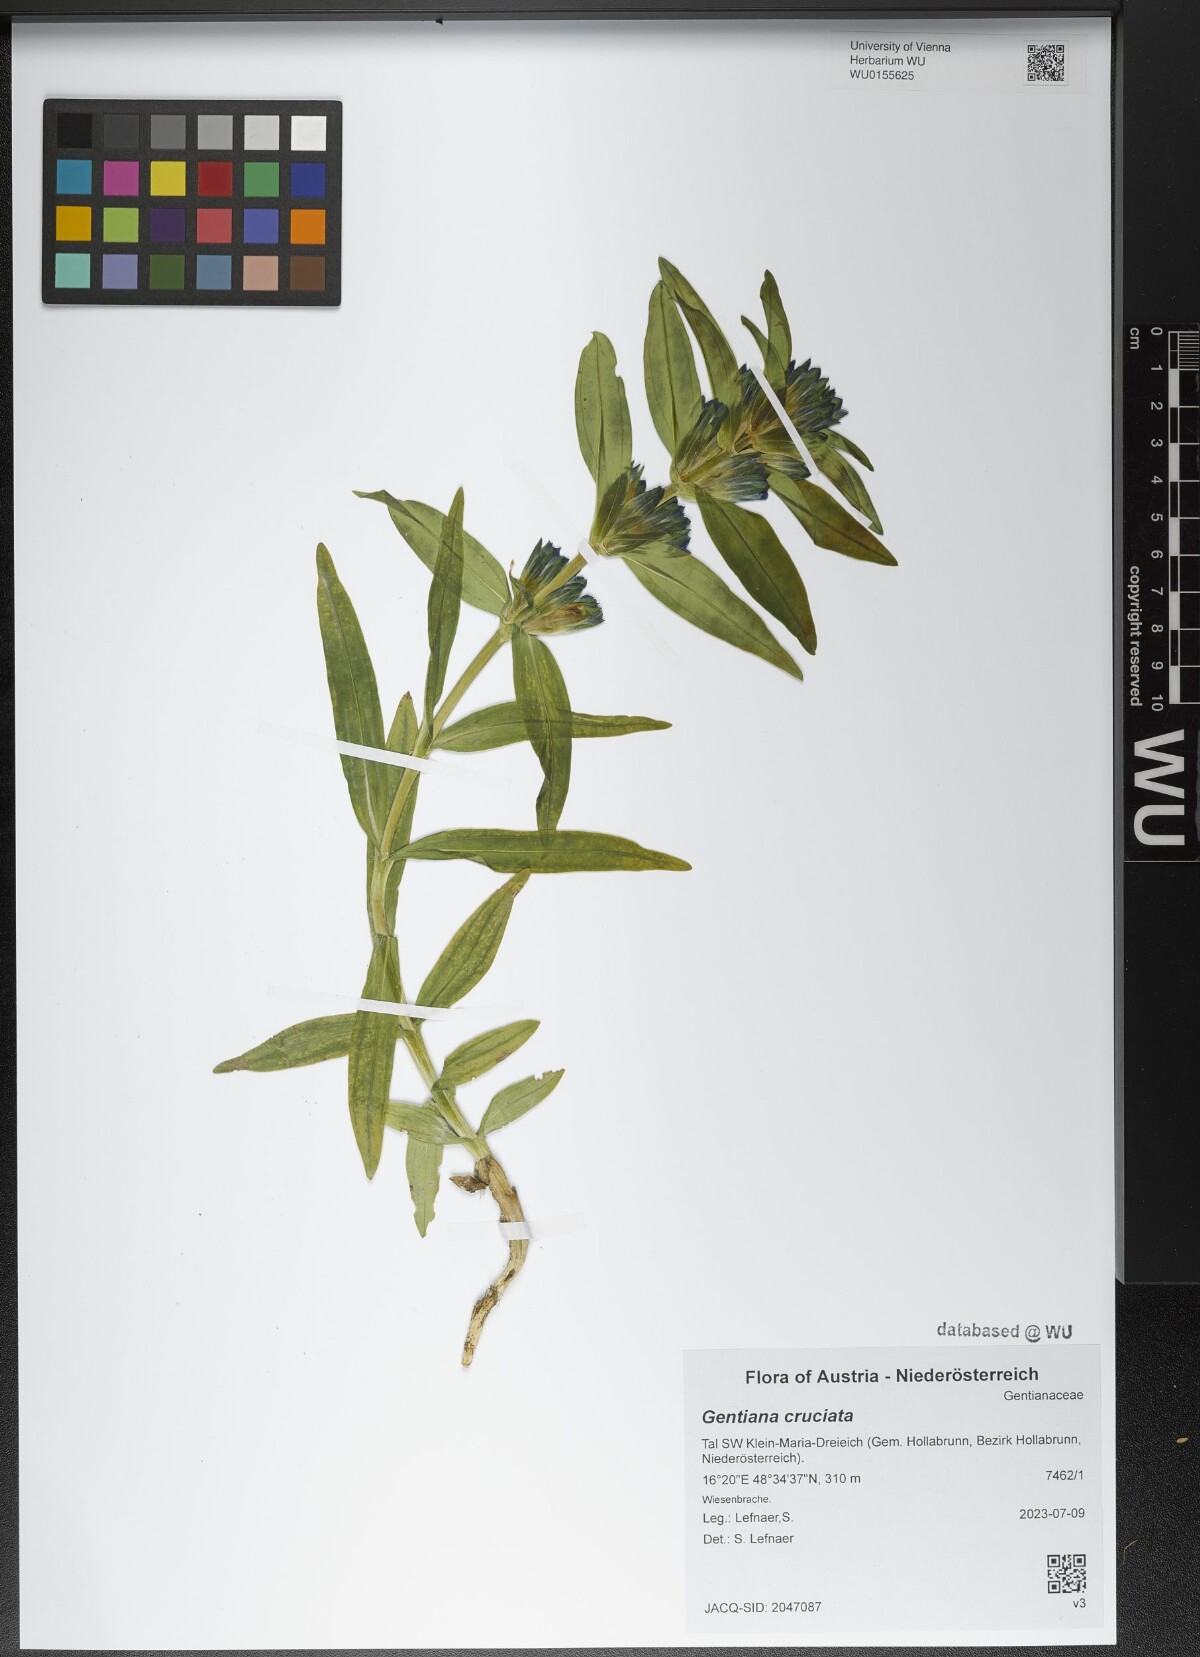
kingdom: Plantae
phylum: Tracheophyta
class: Magnoliopsida
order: Gentianales
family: Gentianaceae
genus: Gentiana
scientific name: Gentiana cruciata
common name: Cross gentian
